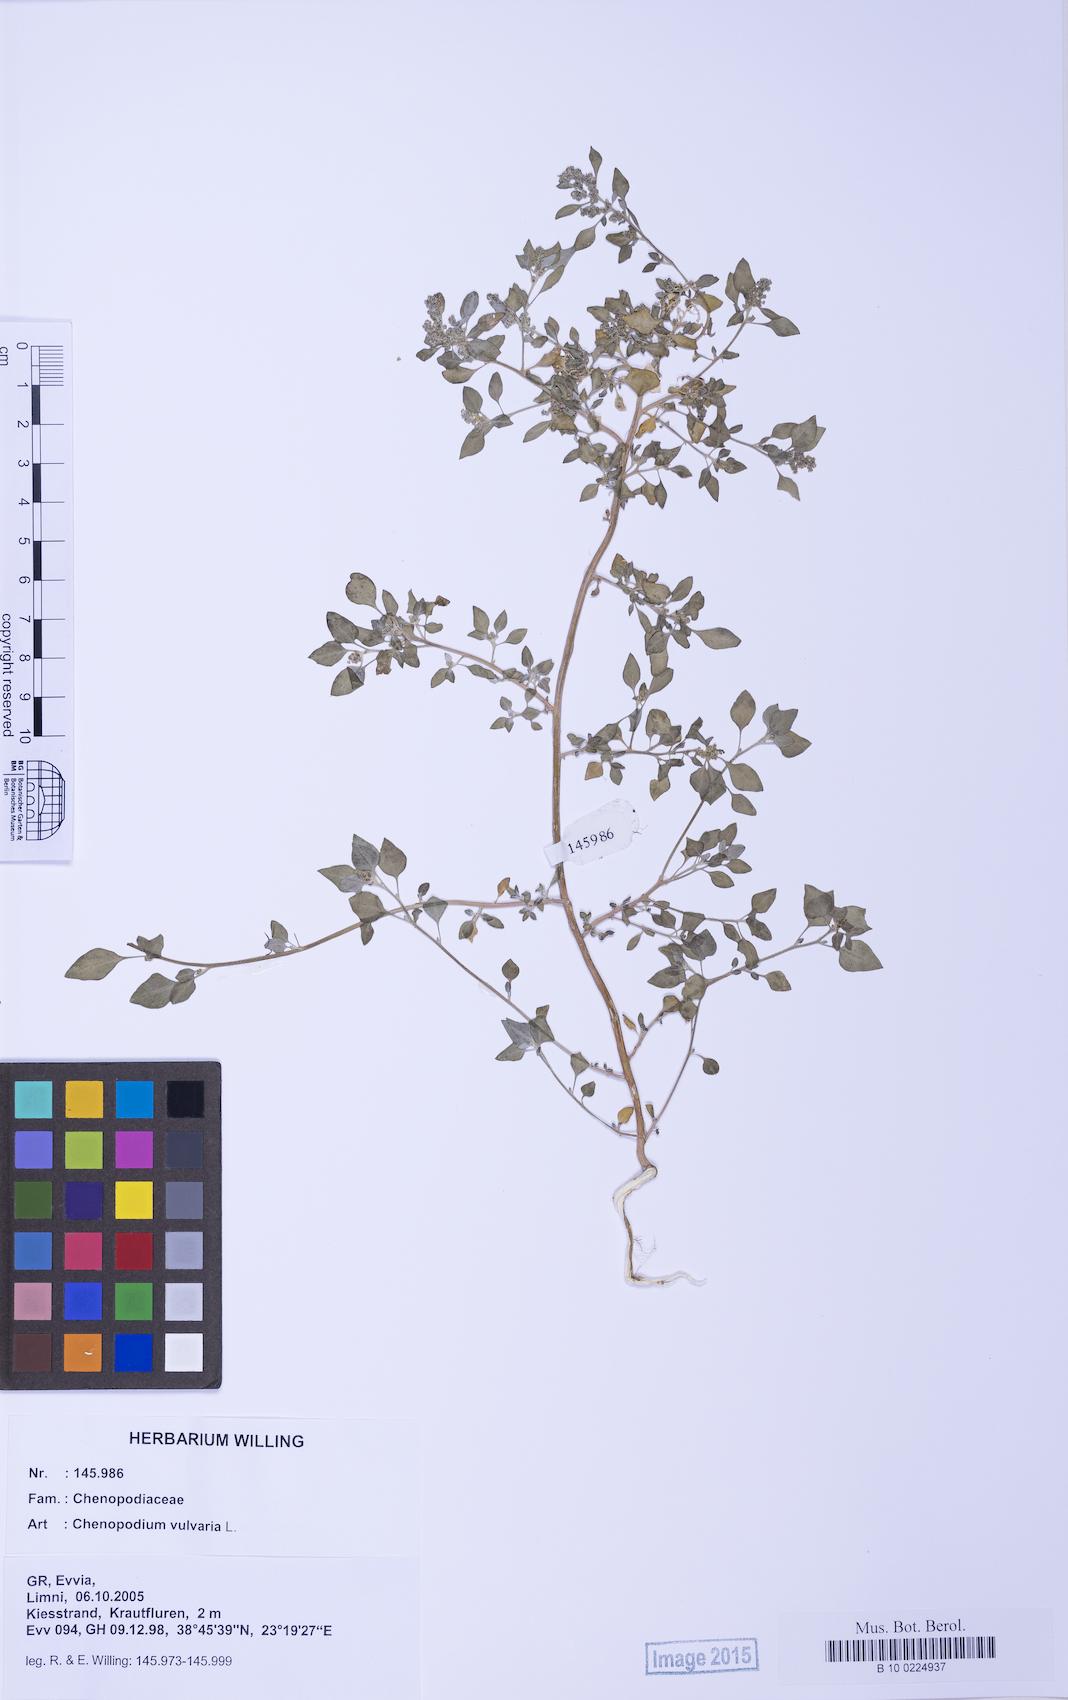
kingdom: Plantae
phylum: Tracheophyta
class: Magnoliopsida
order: Caryophyllales
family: Amaranthaceae
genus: Chenopodium
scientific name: Chenopodium vulvaria
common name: Stinking goosefoot
